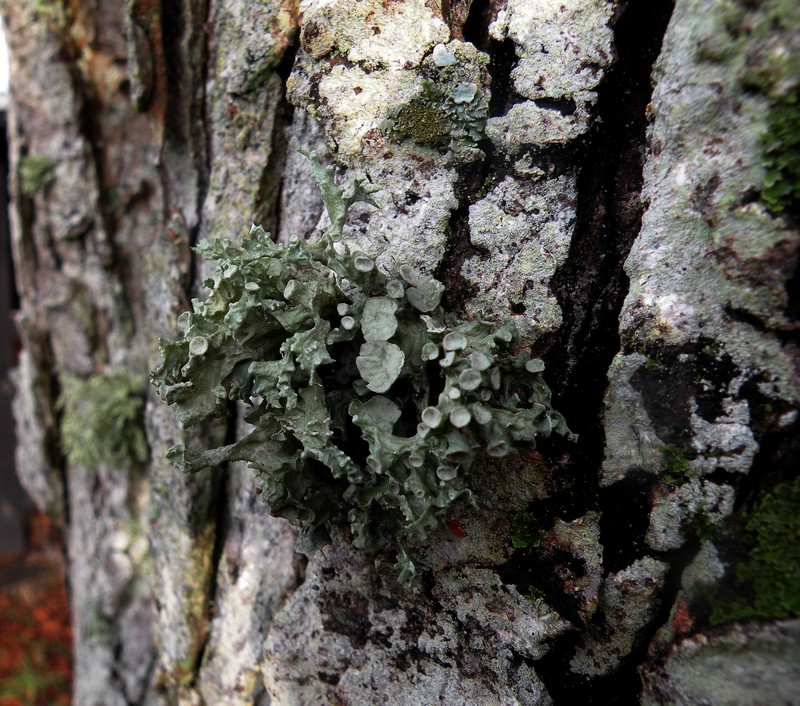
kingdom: Fungi
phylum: Ascomycota
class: Lecanoromycetes
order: Lecanorales
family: Ramalinaceae
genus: Ramalina
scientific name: Ramalina fastigiata
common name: tue-grenlav
